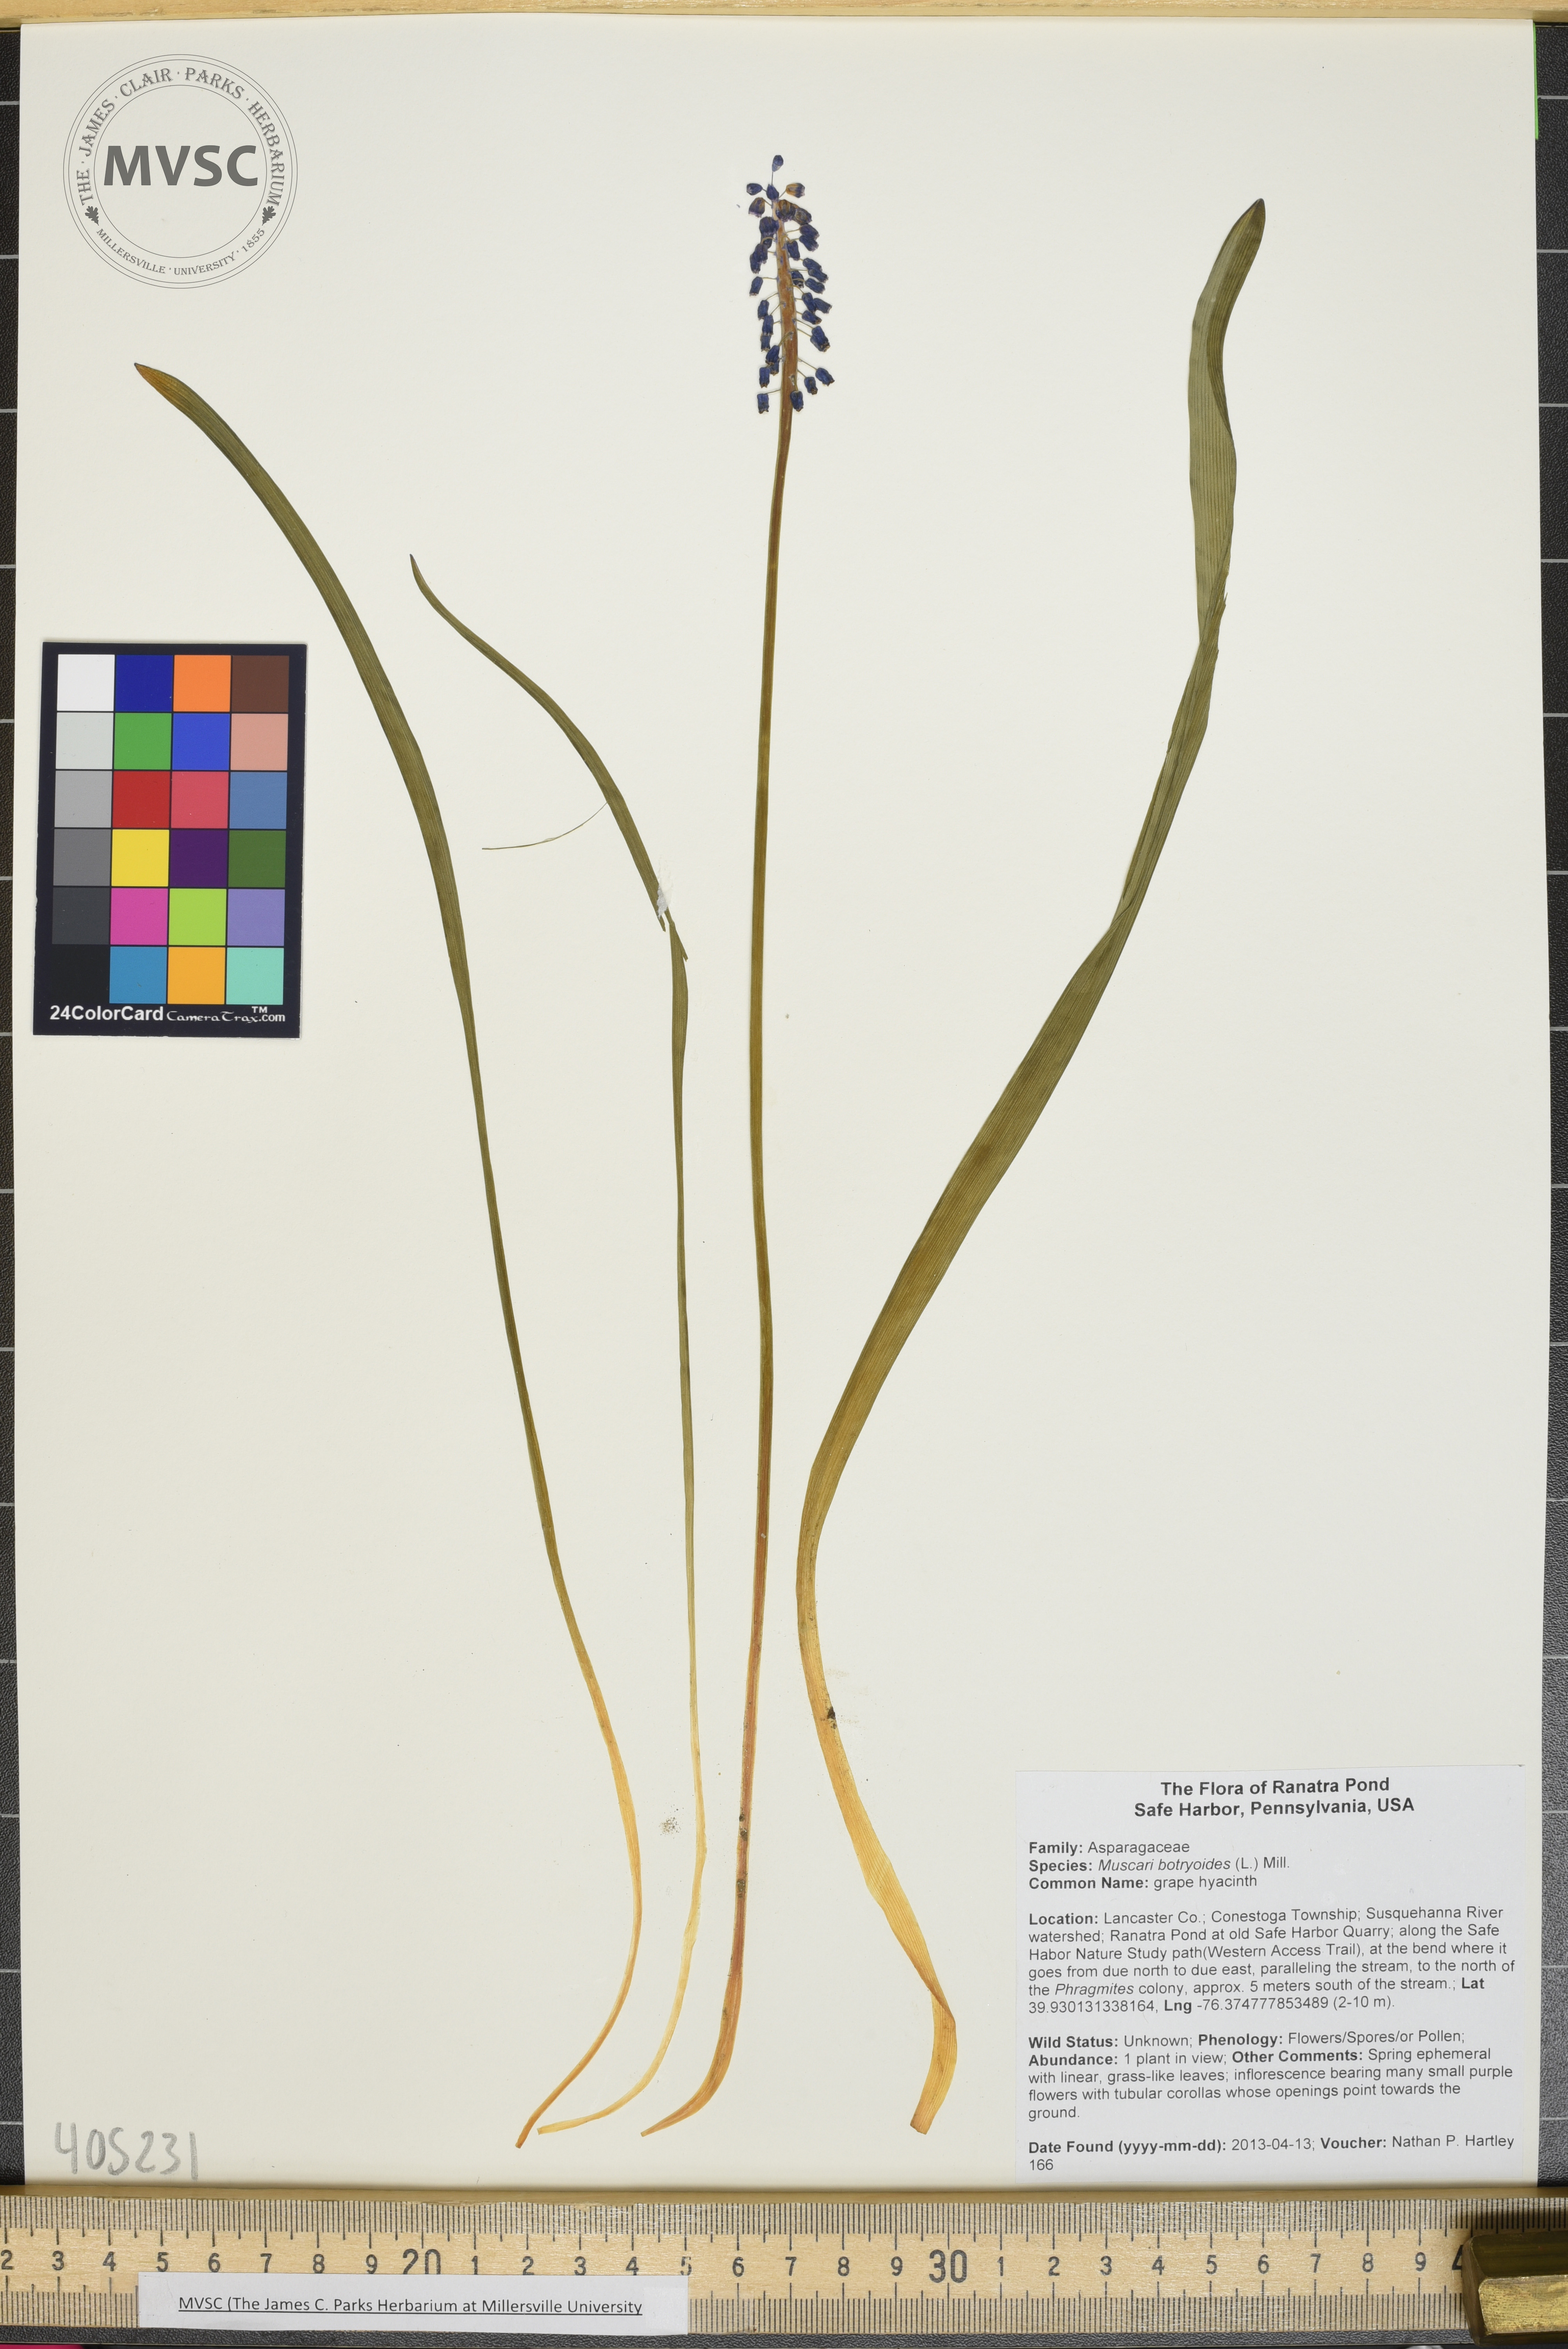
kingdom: Plantae
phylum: Tracheophyta
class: Liliopsida
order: Asparagales
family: Asparagaceae
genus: Muscari
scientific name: Muscari botryoides
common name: grape hyacinth
